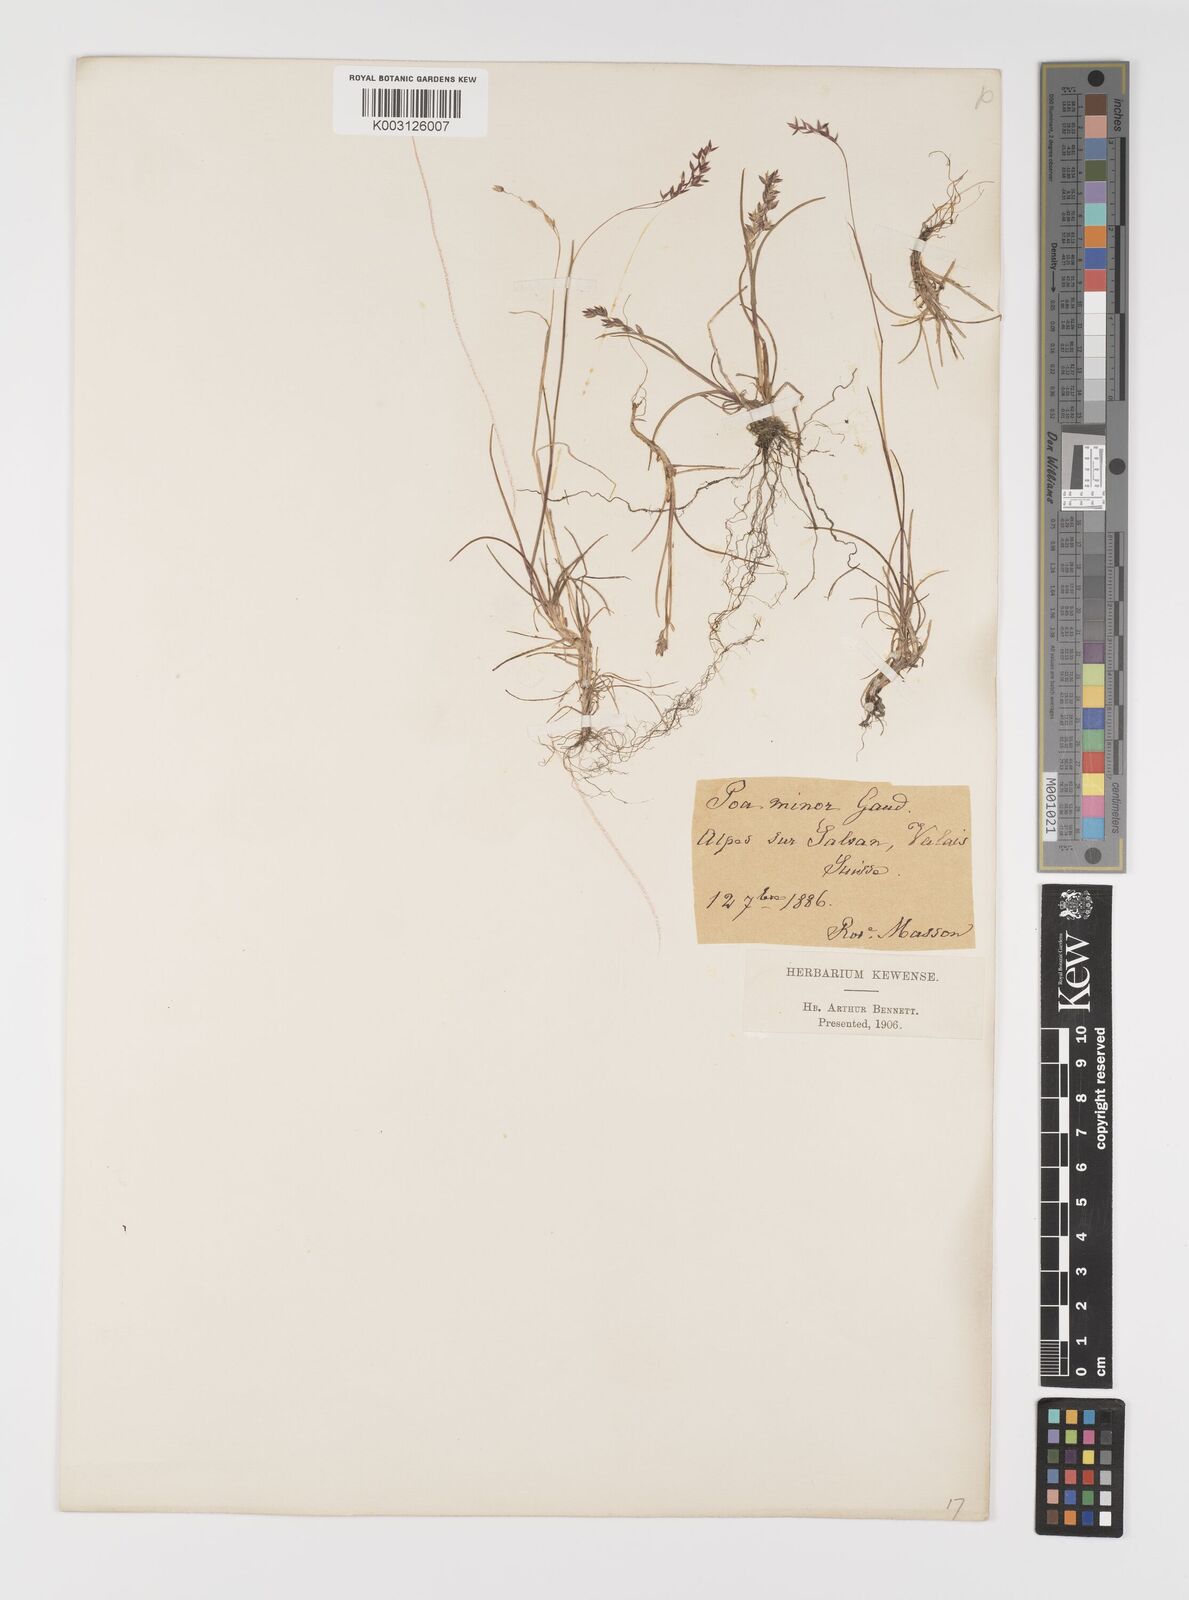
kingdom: Plantae
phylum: Tracheophyta
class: Liliopsida
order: Poales
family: Poaceae
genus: Poa
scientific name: Poa minor
